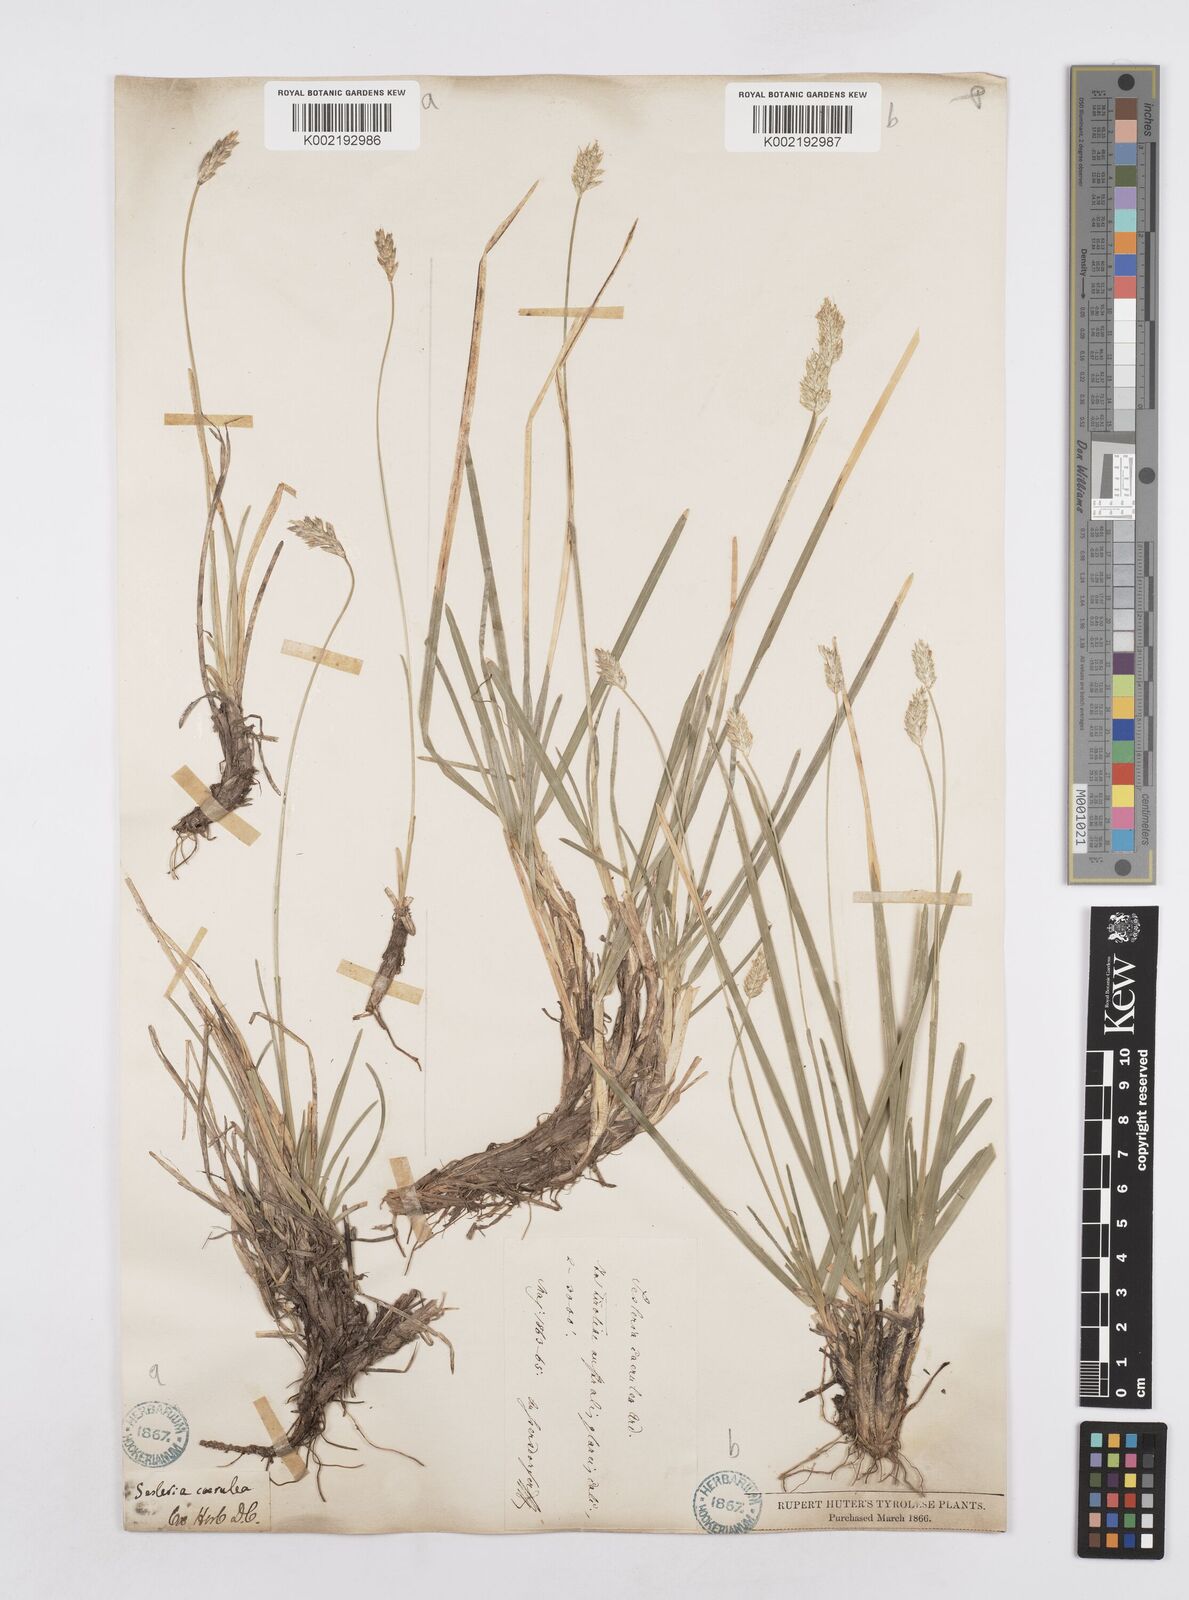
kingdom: Plantae
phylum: Tracheophyta
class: Liliopsida
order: Poales
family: Poaceae
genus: Sesleria
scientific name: Sesleria caerulea
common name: Blue moor-grass
